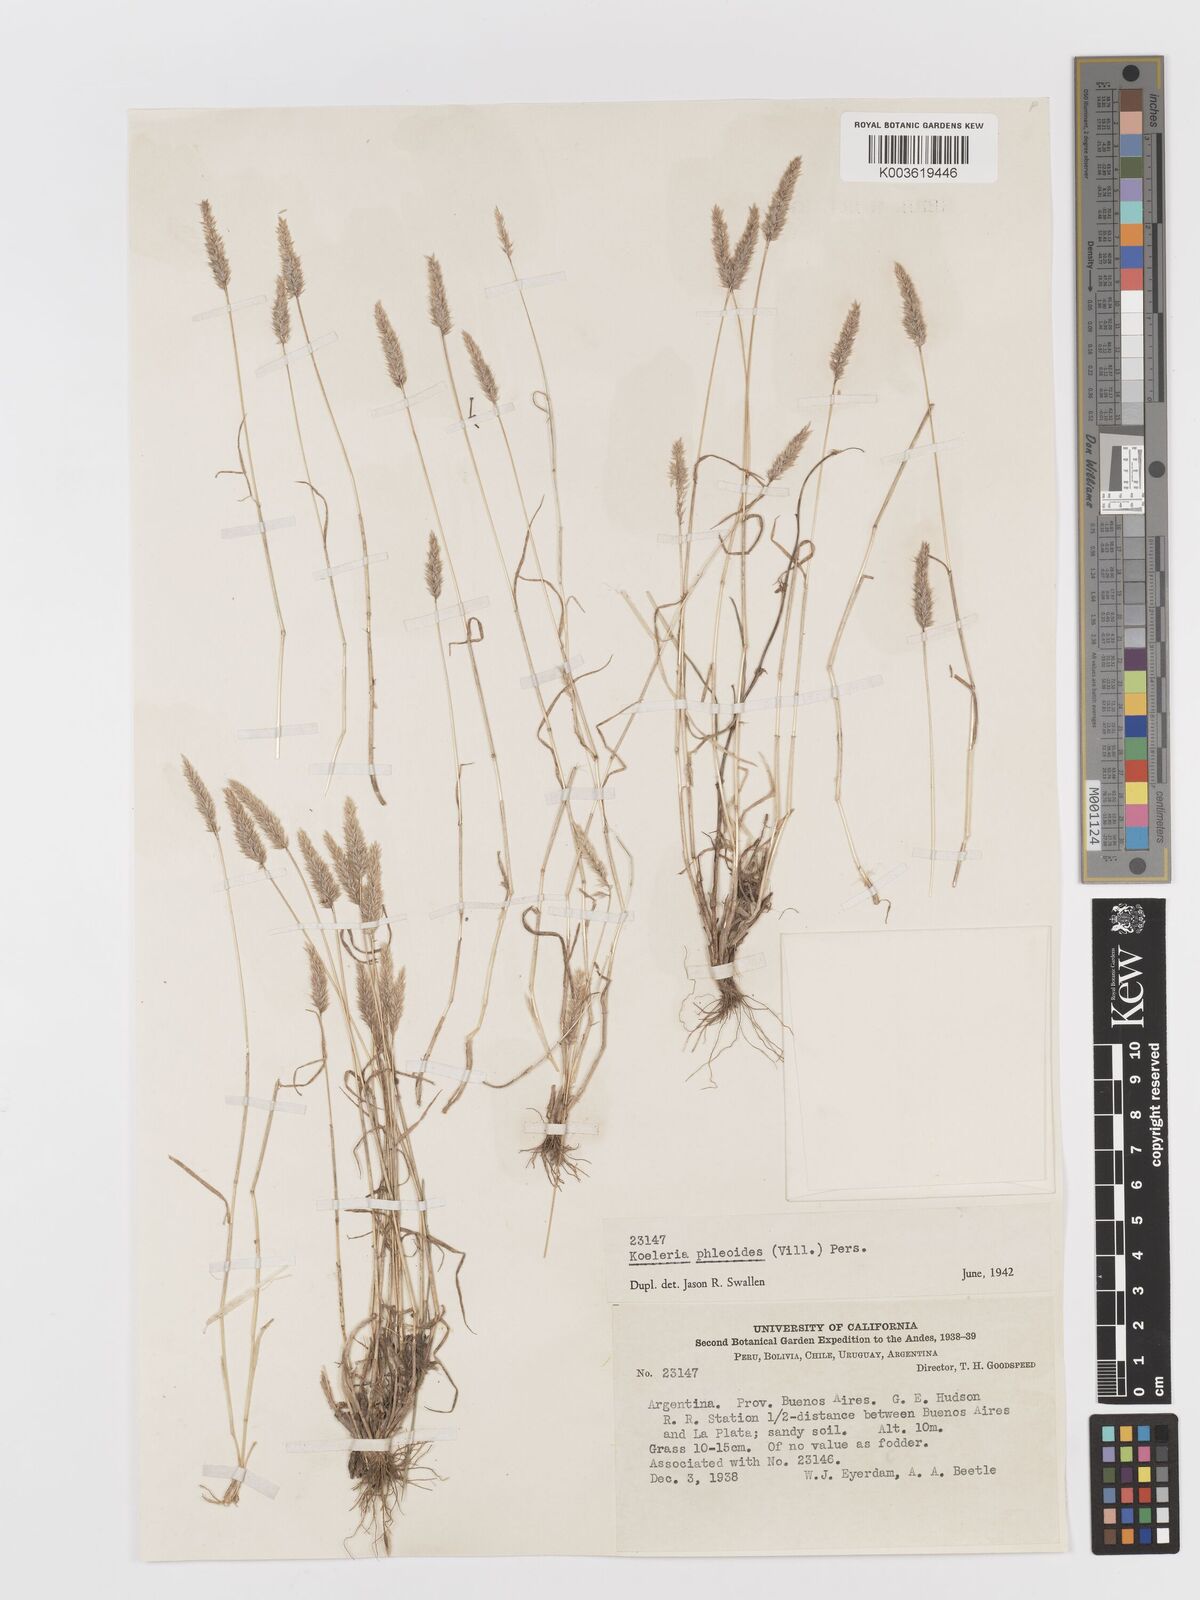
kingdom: Plantae
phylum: Tracheophyta
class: Liliopsida
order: Poales
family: Poaceae
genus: Rostraria
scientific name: Rostraria cristata
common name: Mediterranean hair-grass
